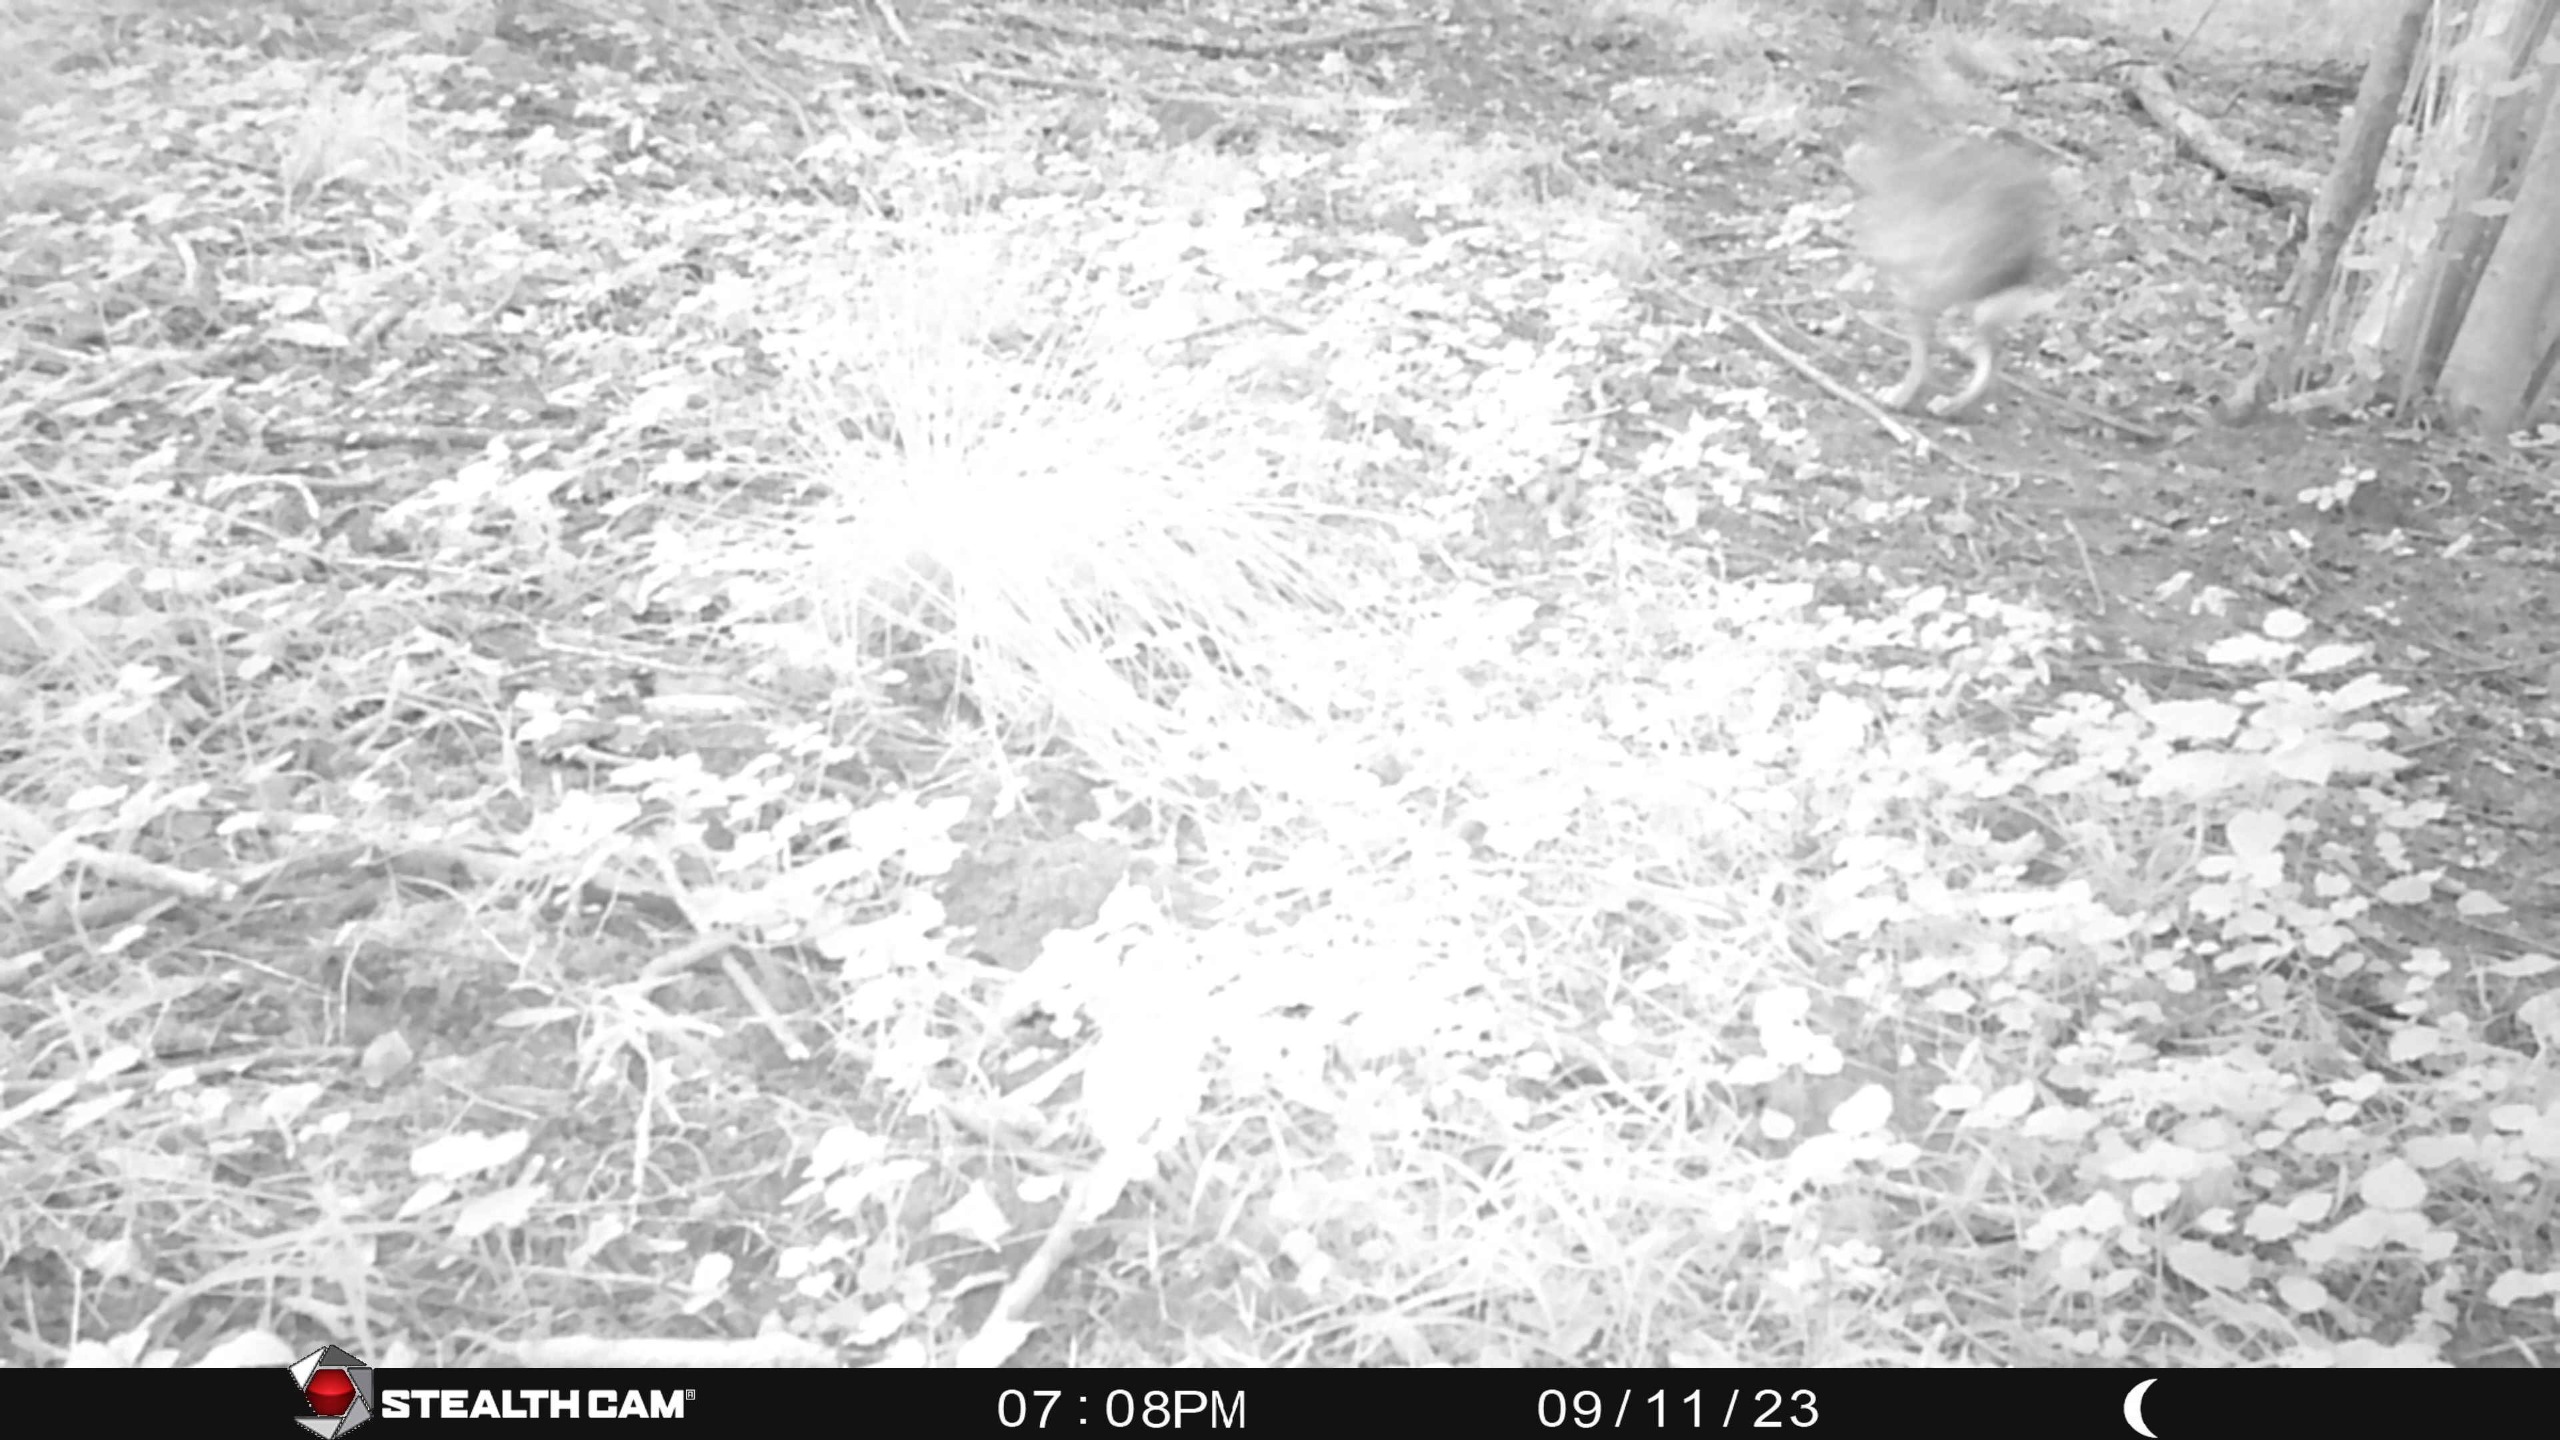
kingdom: Animalia
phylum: Chordata
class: Mammalia
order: Lagomorpha
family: Leporidae
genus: Lepus
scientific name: Lepus europaeus
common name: Hare
